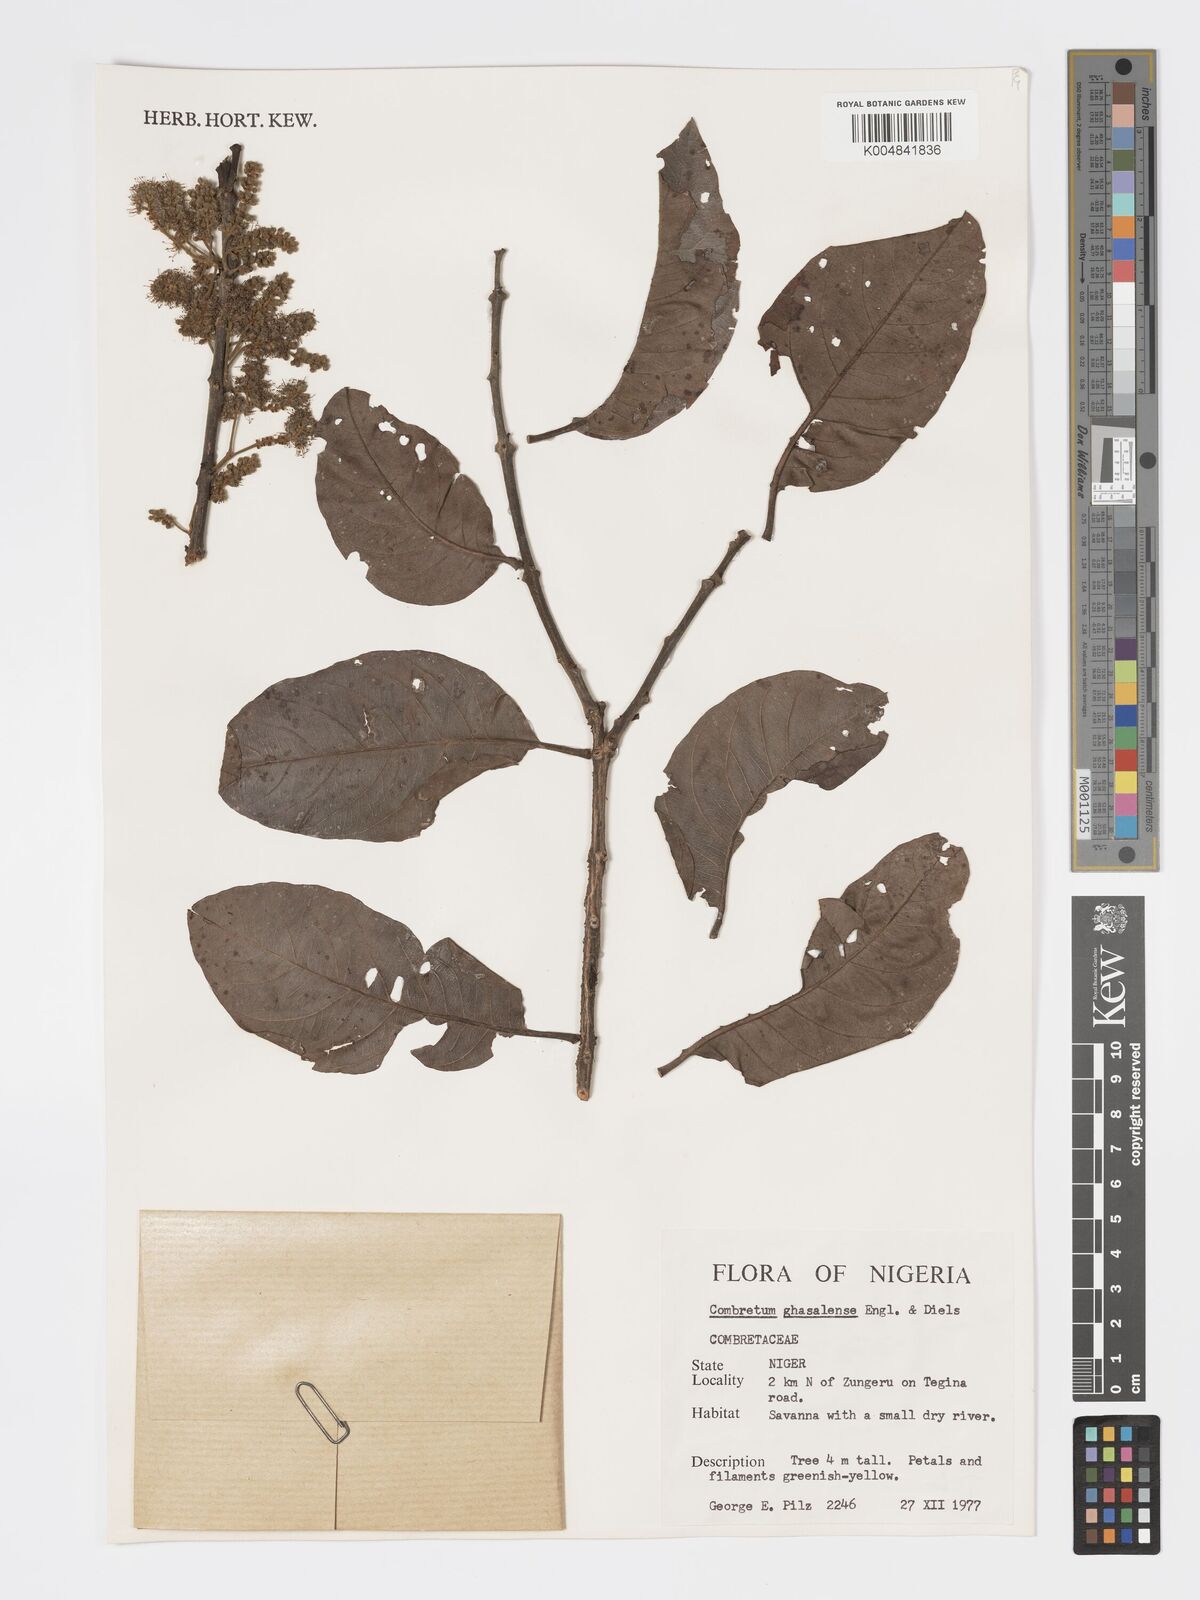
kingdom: Plantae
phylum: Tracheophyta
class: Magnoliopsida
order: Myrtales
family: Combretaceae
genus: Combretum
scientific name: Combretum adenogonium
